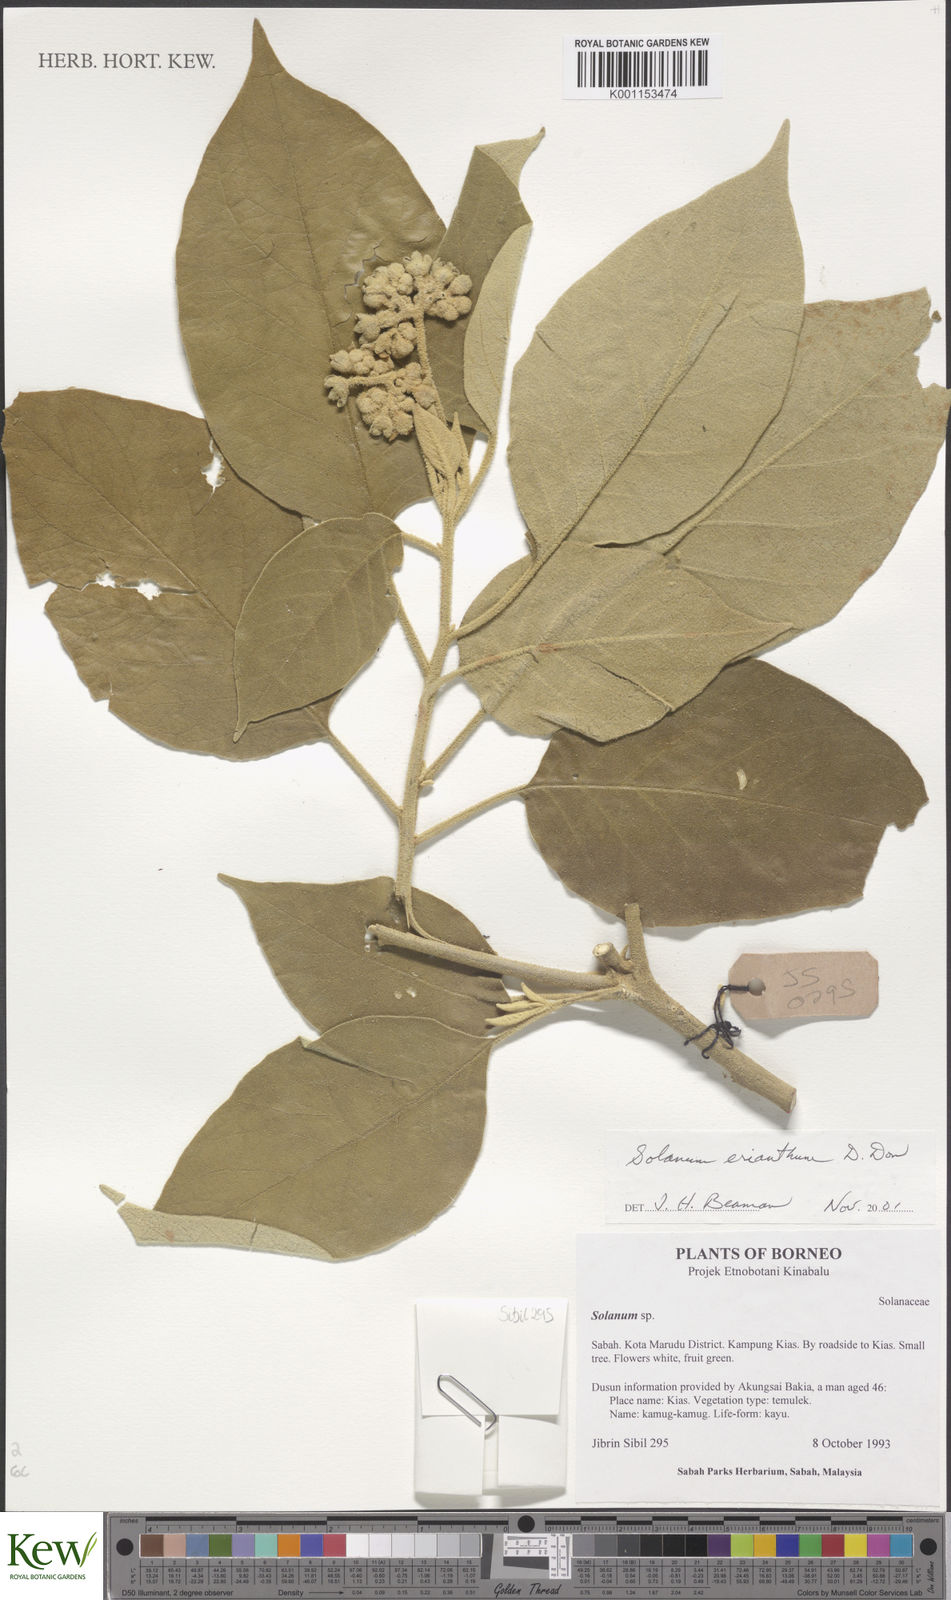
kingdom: Plantae
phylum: Tracheophyta
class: Magnoliopsida
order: Solanales
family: Solanaceae
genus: Solanum
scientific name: Solanum erianthum
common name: Tobacco-tree
